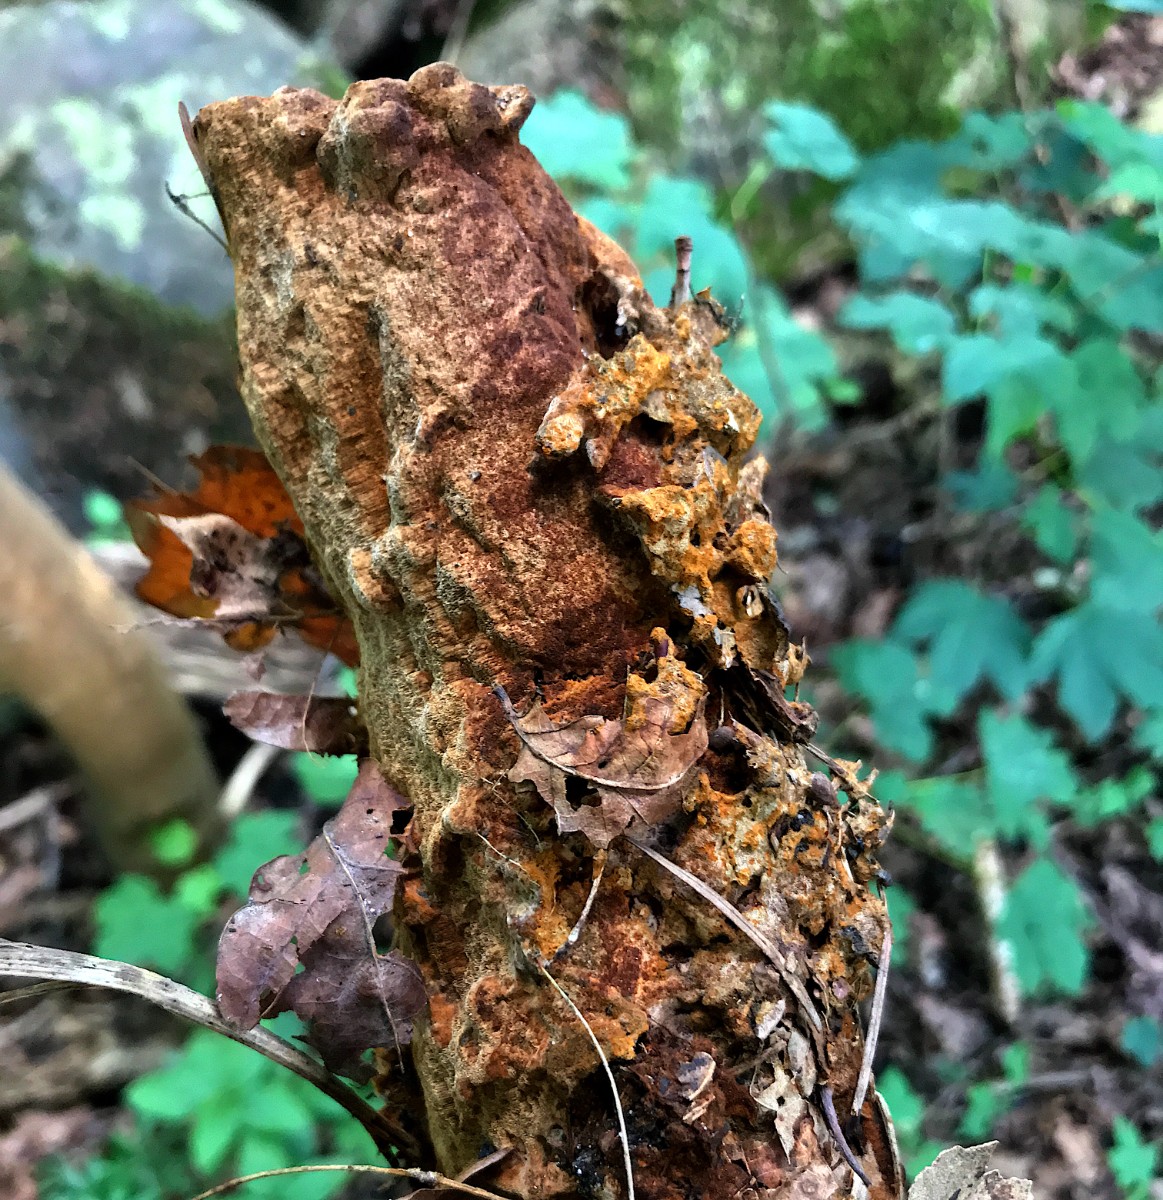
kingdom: Fungi
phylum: Basidiomycota
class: Agaricomycetes
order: Hymenochaetales
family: Hymenochaetaceae
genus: Fuscoporia
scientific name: Fuscoporia ferrea
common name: skorpe-ildporesvamp
